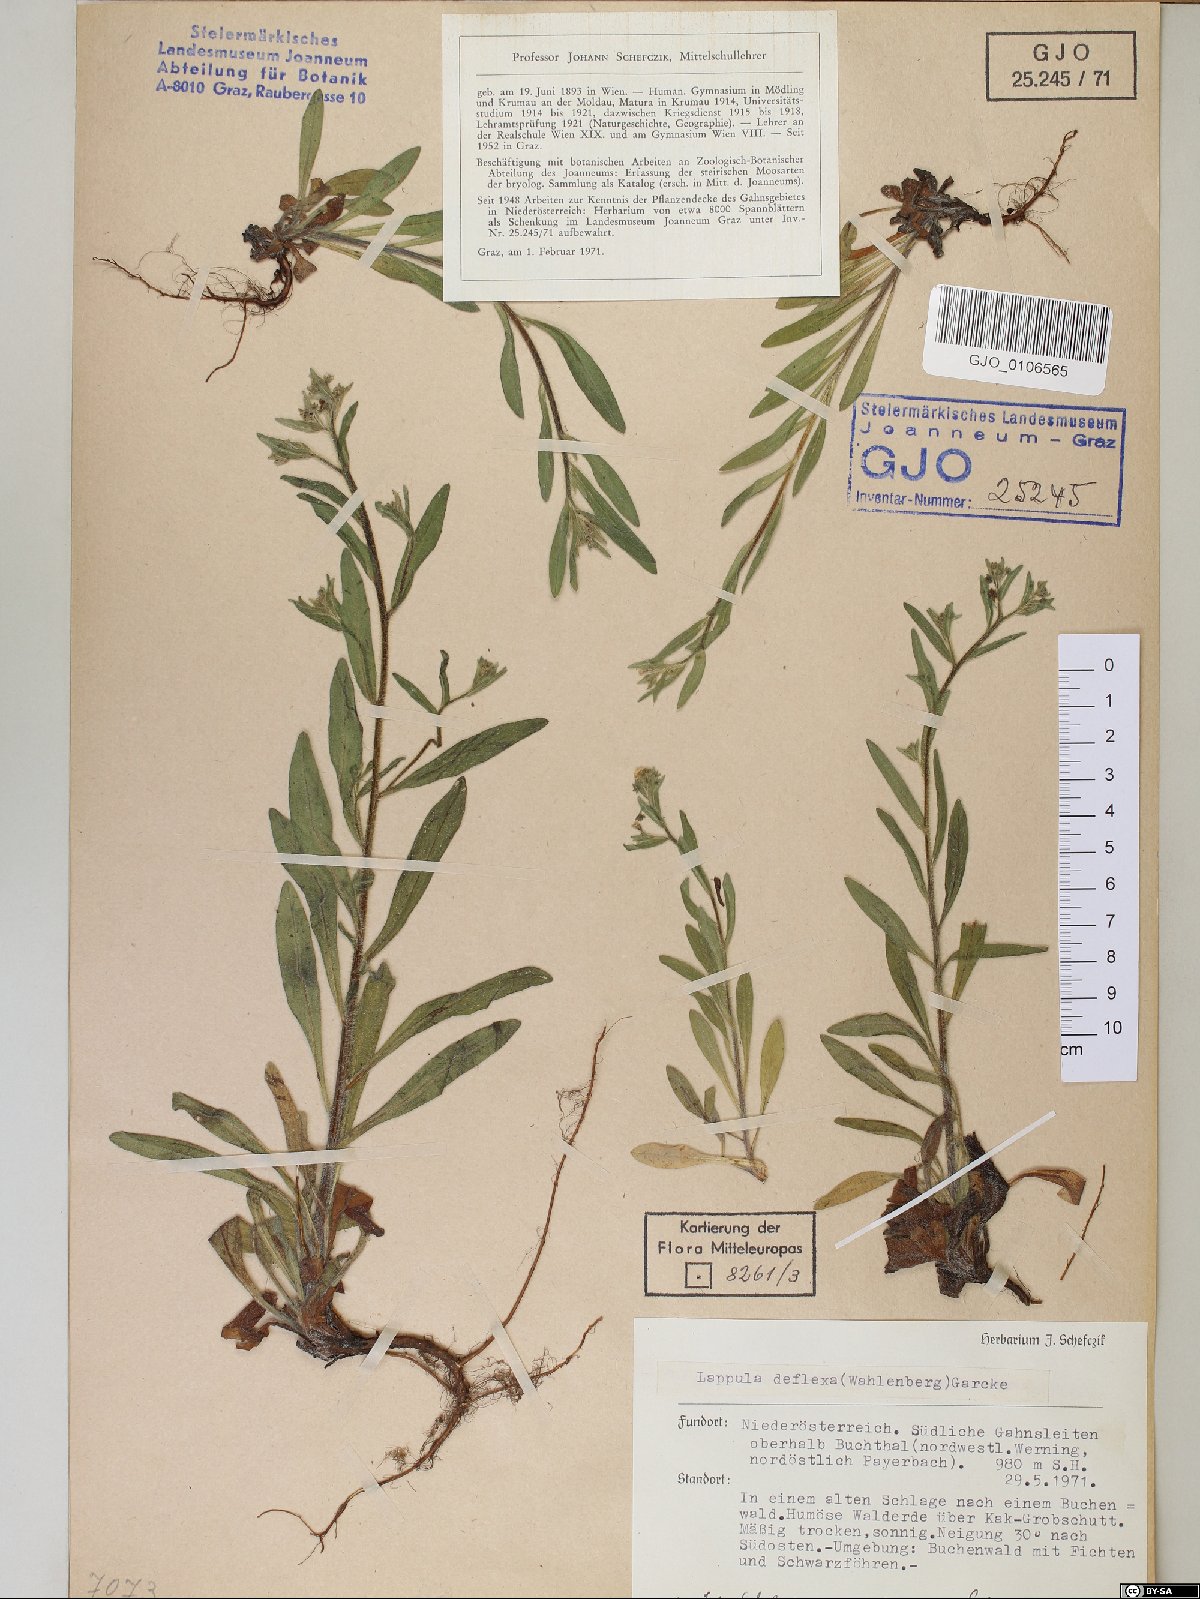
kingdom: Plantae
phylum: Tracheophyta
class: Magnoliopsida
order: Boraginales
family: Boraginaceae
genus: Hackelia
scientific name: Hackelia deflexa
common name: Nodding stickseed
